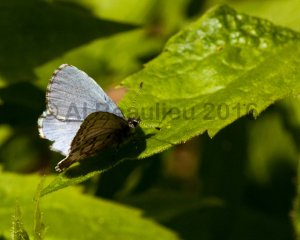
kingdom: Animalia
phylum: Arthropoda
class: Insecta
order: Lepidoptera
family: Lycaenidae
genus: Celastrina
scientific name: Celastrina lucia
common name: Northern Spring Azure
